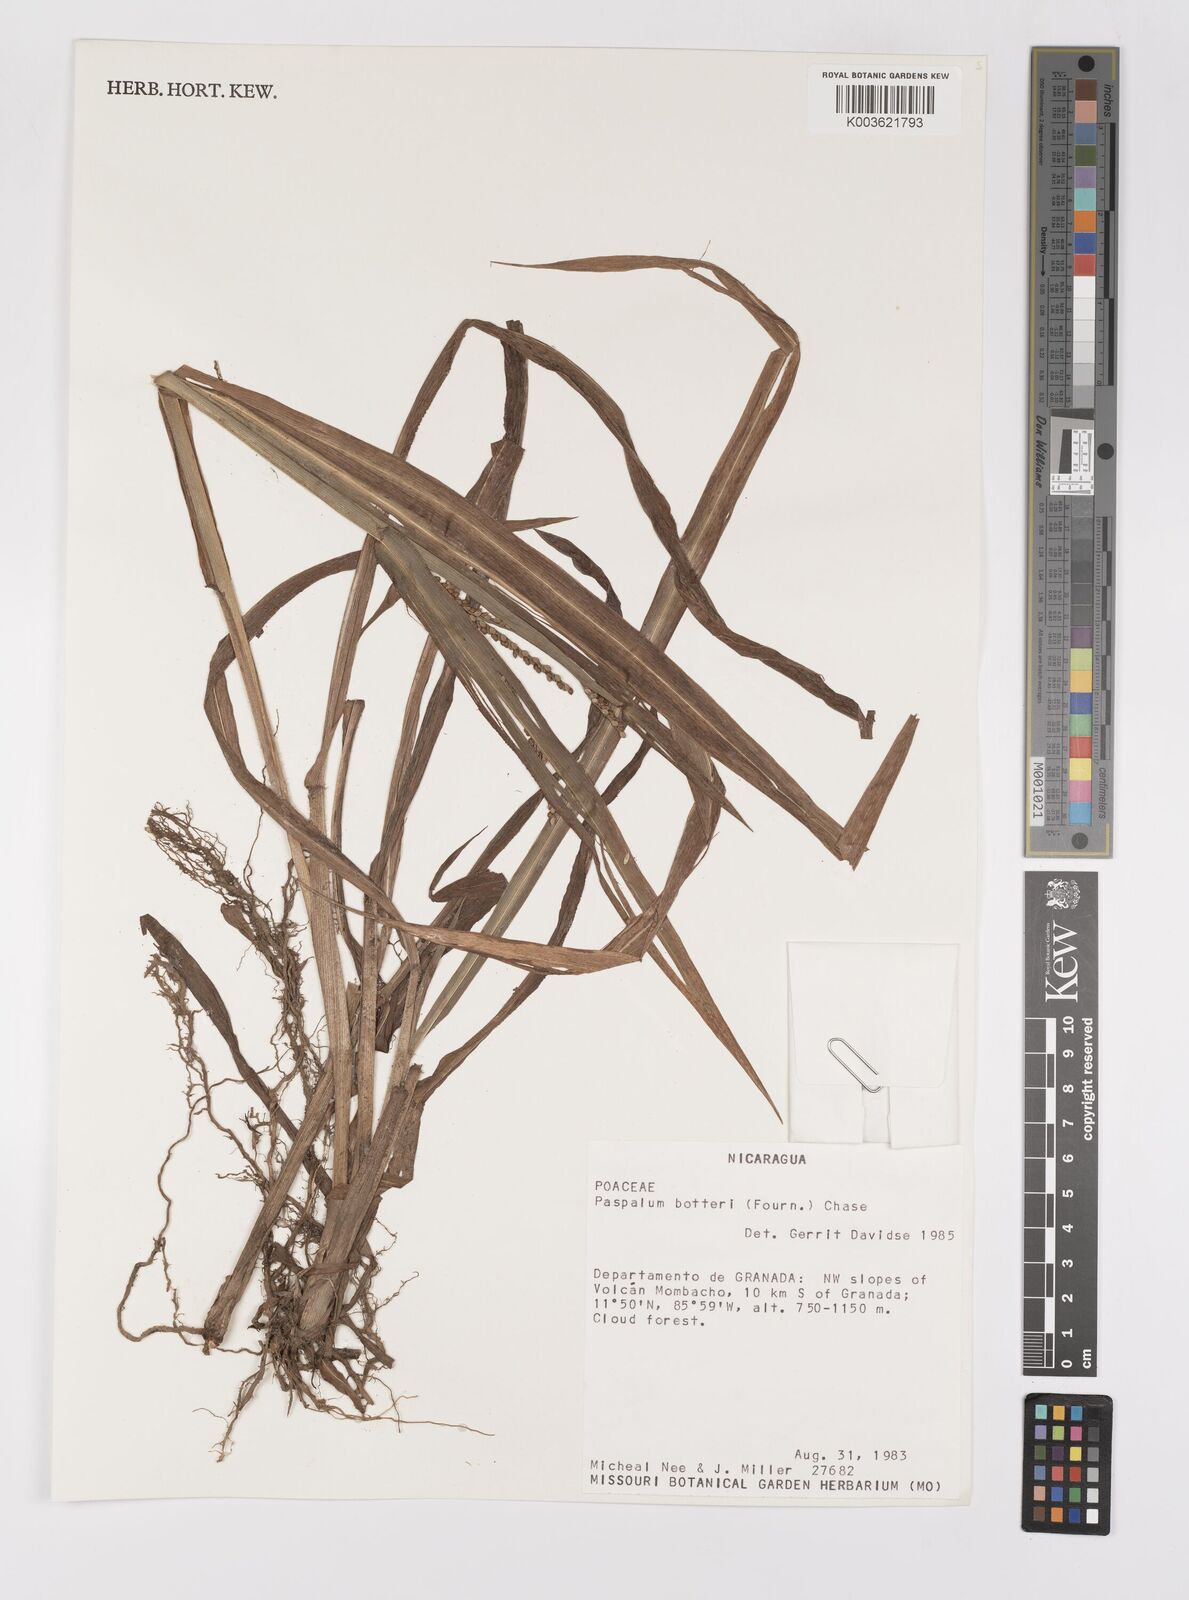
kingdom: Plantae
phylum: Tracheophyta
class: Liliopsida
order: Poales
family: Poaceae
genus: Paspalum
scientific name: Paspalum botterii
